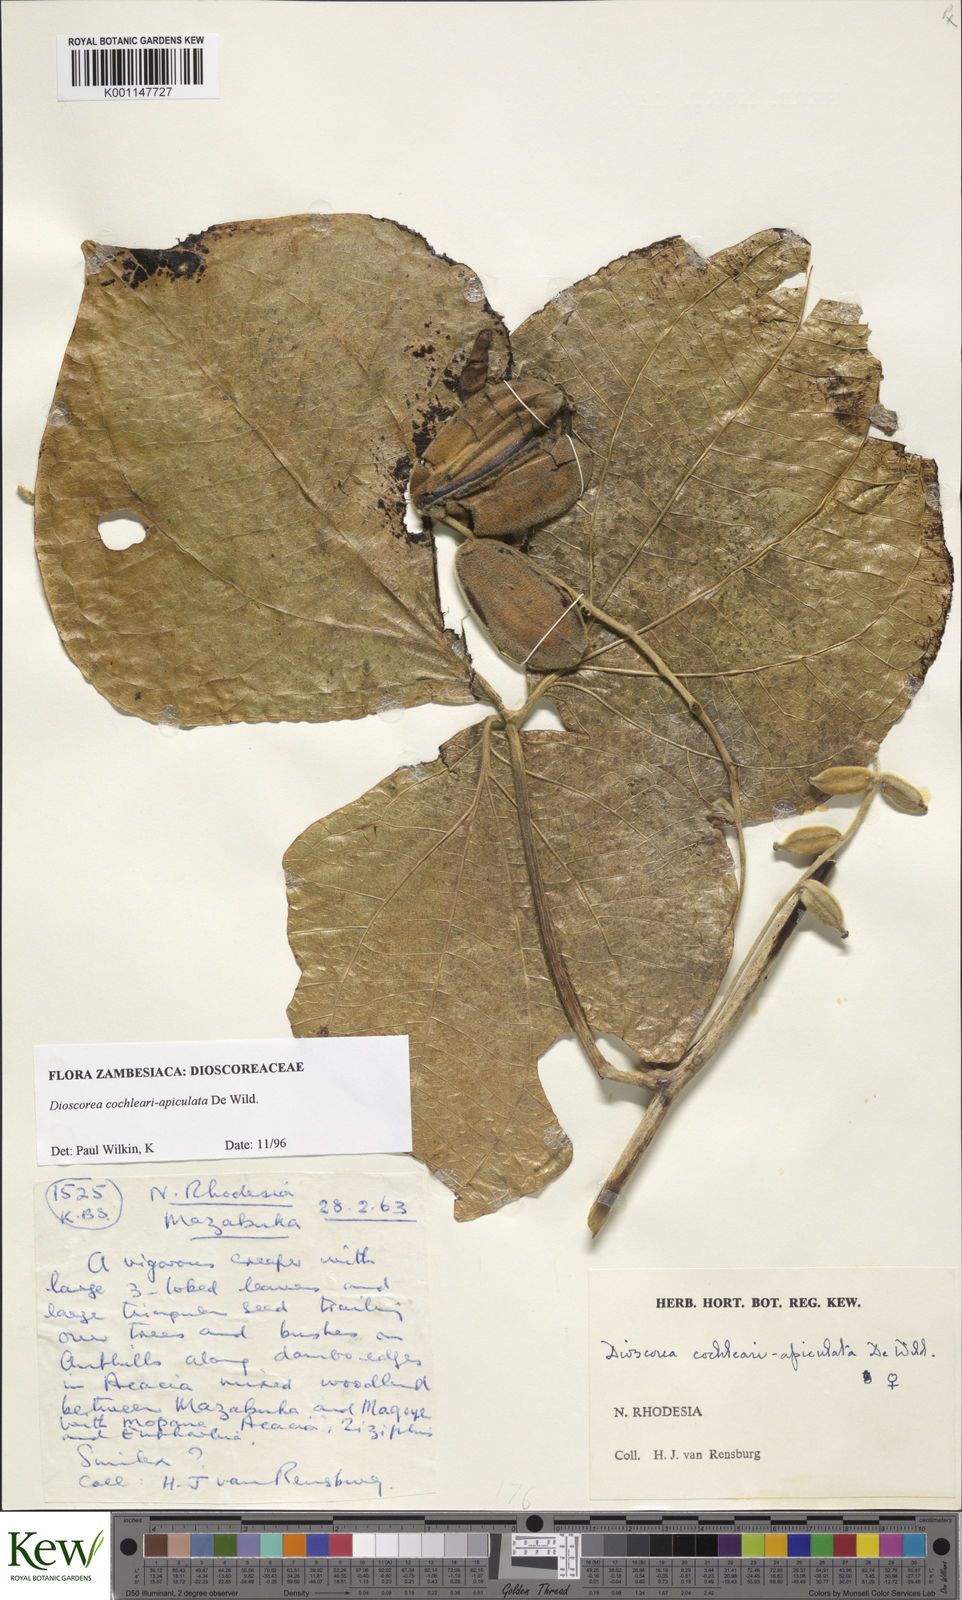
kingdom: Plantae
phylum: Tracheophyta
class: Liliopsida
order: Dioscoreales
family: Dioscoreaceae
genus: Dioscorea
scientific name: Dioscorea cochleariapiculata
